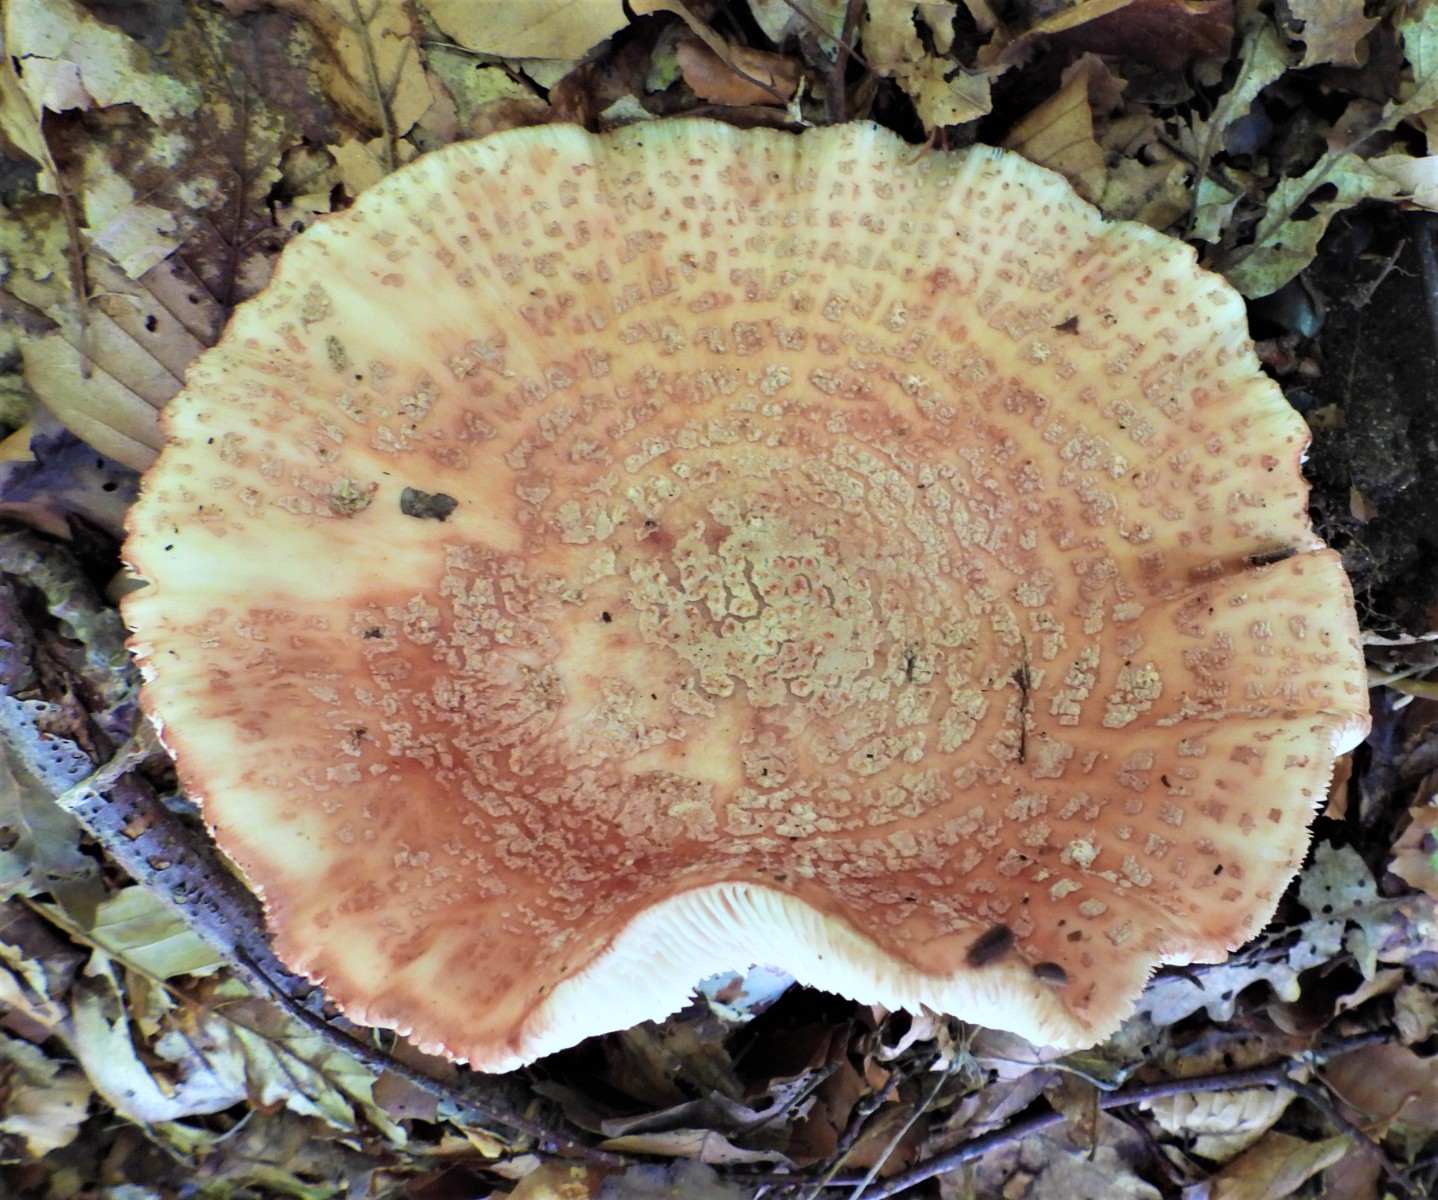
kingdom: Fungi
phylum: Basidiomycota
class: Agaricomycetes
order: Agaricales
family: Amanitaceae
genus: Amanita
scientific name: Amanita rubescens
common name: rødmende fluesvamp
